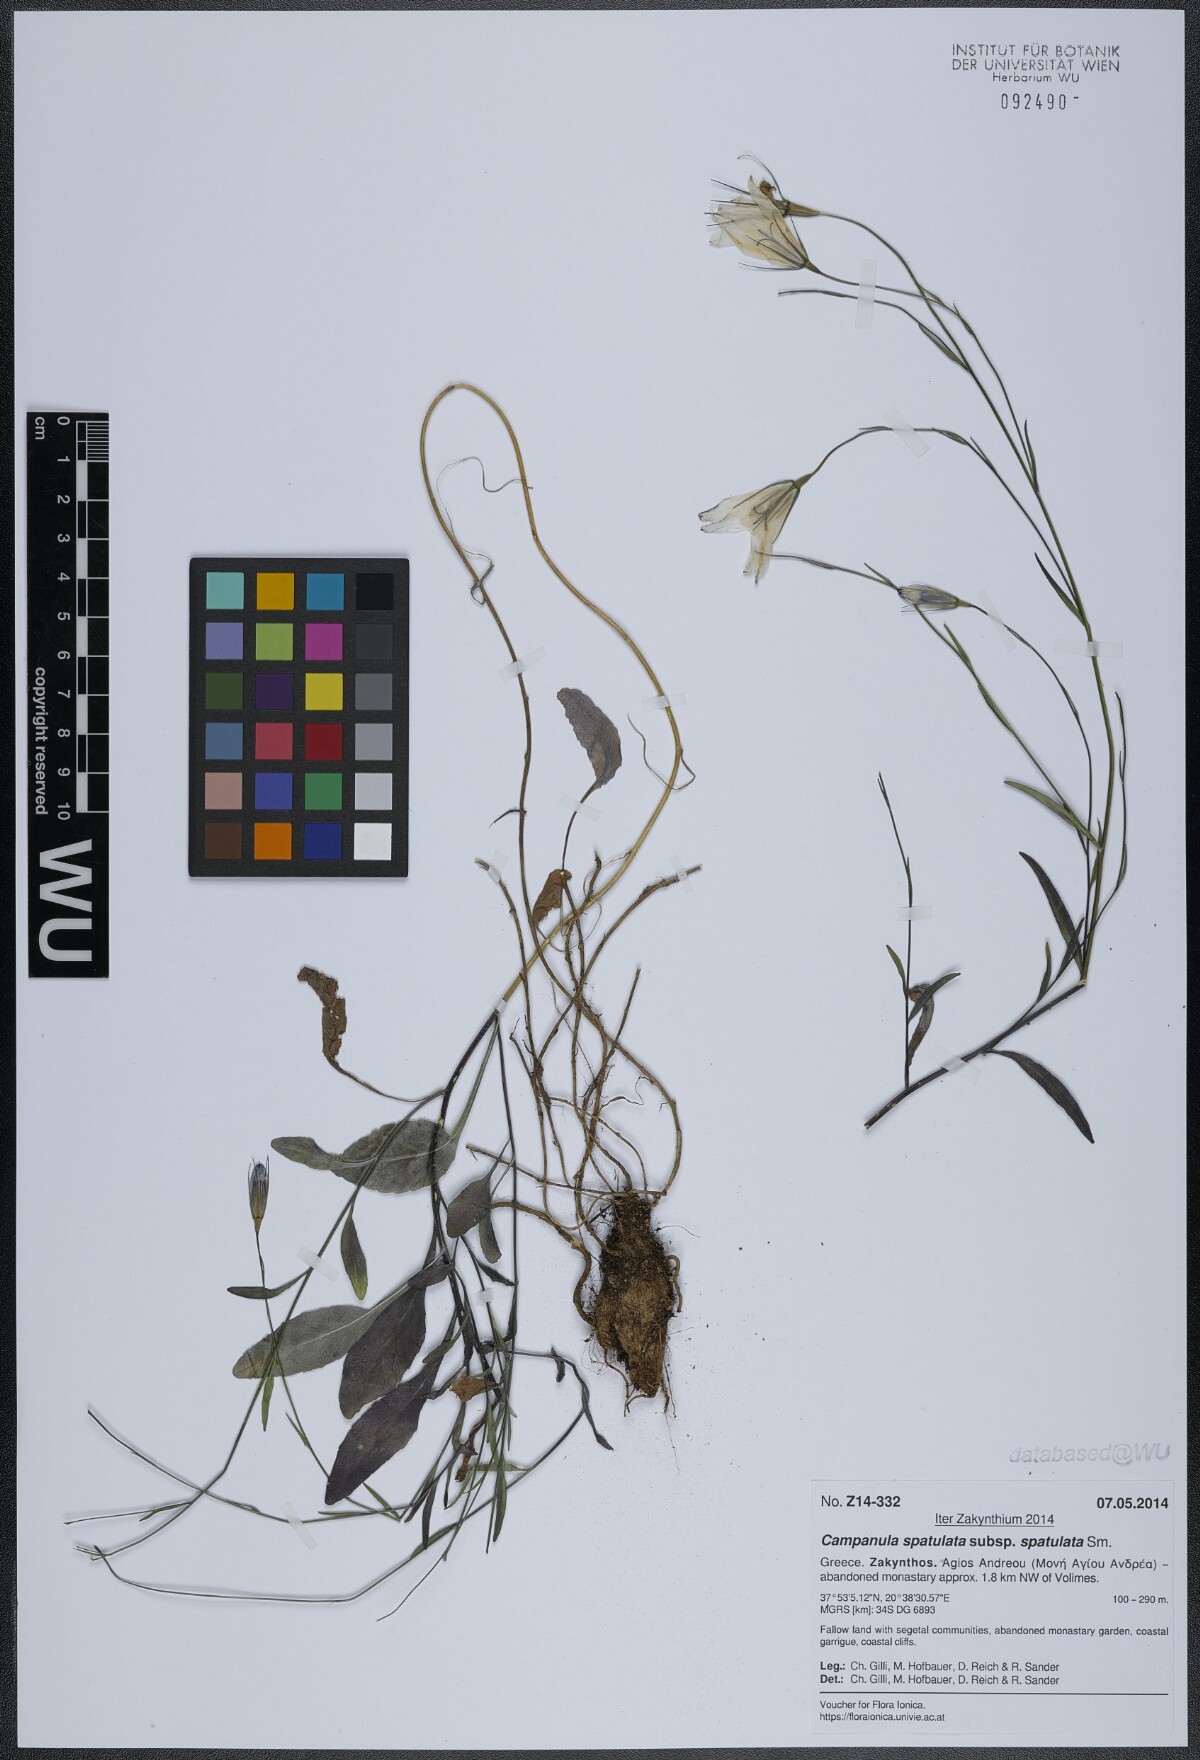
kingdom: Plantae
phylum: Tracheophyta
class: Magnoliopsida
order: Asterales
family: Campanulaceae
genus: Campanula
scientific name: Campanula spatulata
